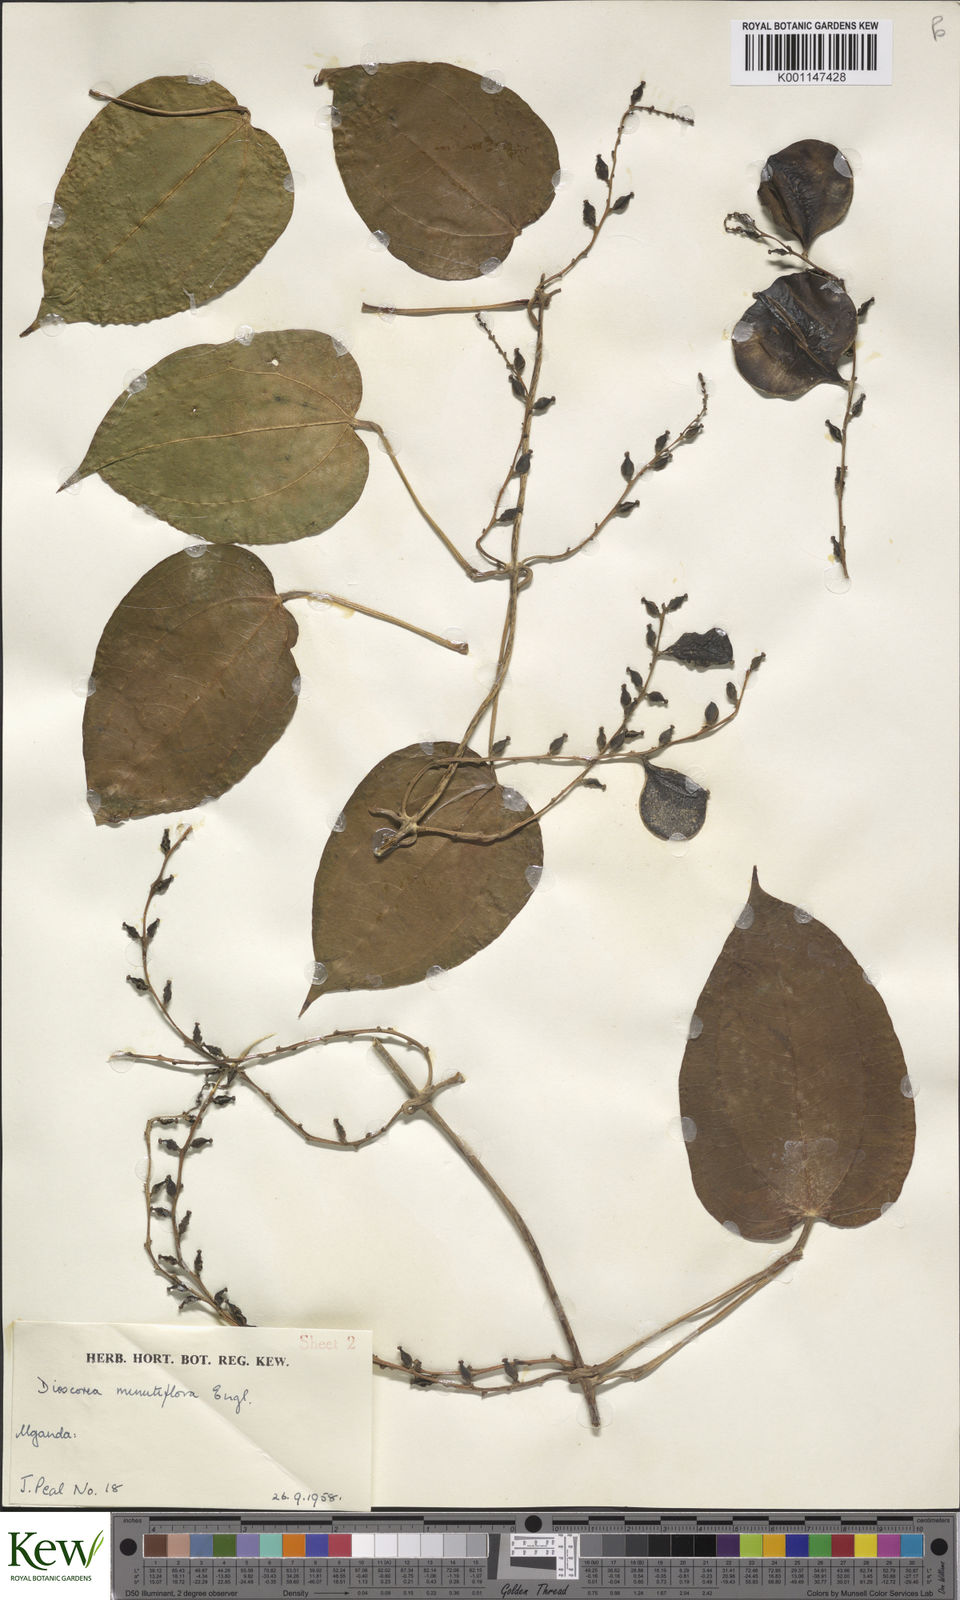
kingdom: Plantae
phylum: Tracheophyta
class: Liliopsida
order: Dioscoreales
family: Dioscoreaceae
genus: Dioscorea
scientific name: Dioscorea minutiflora
